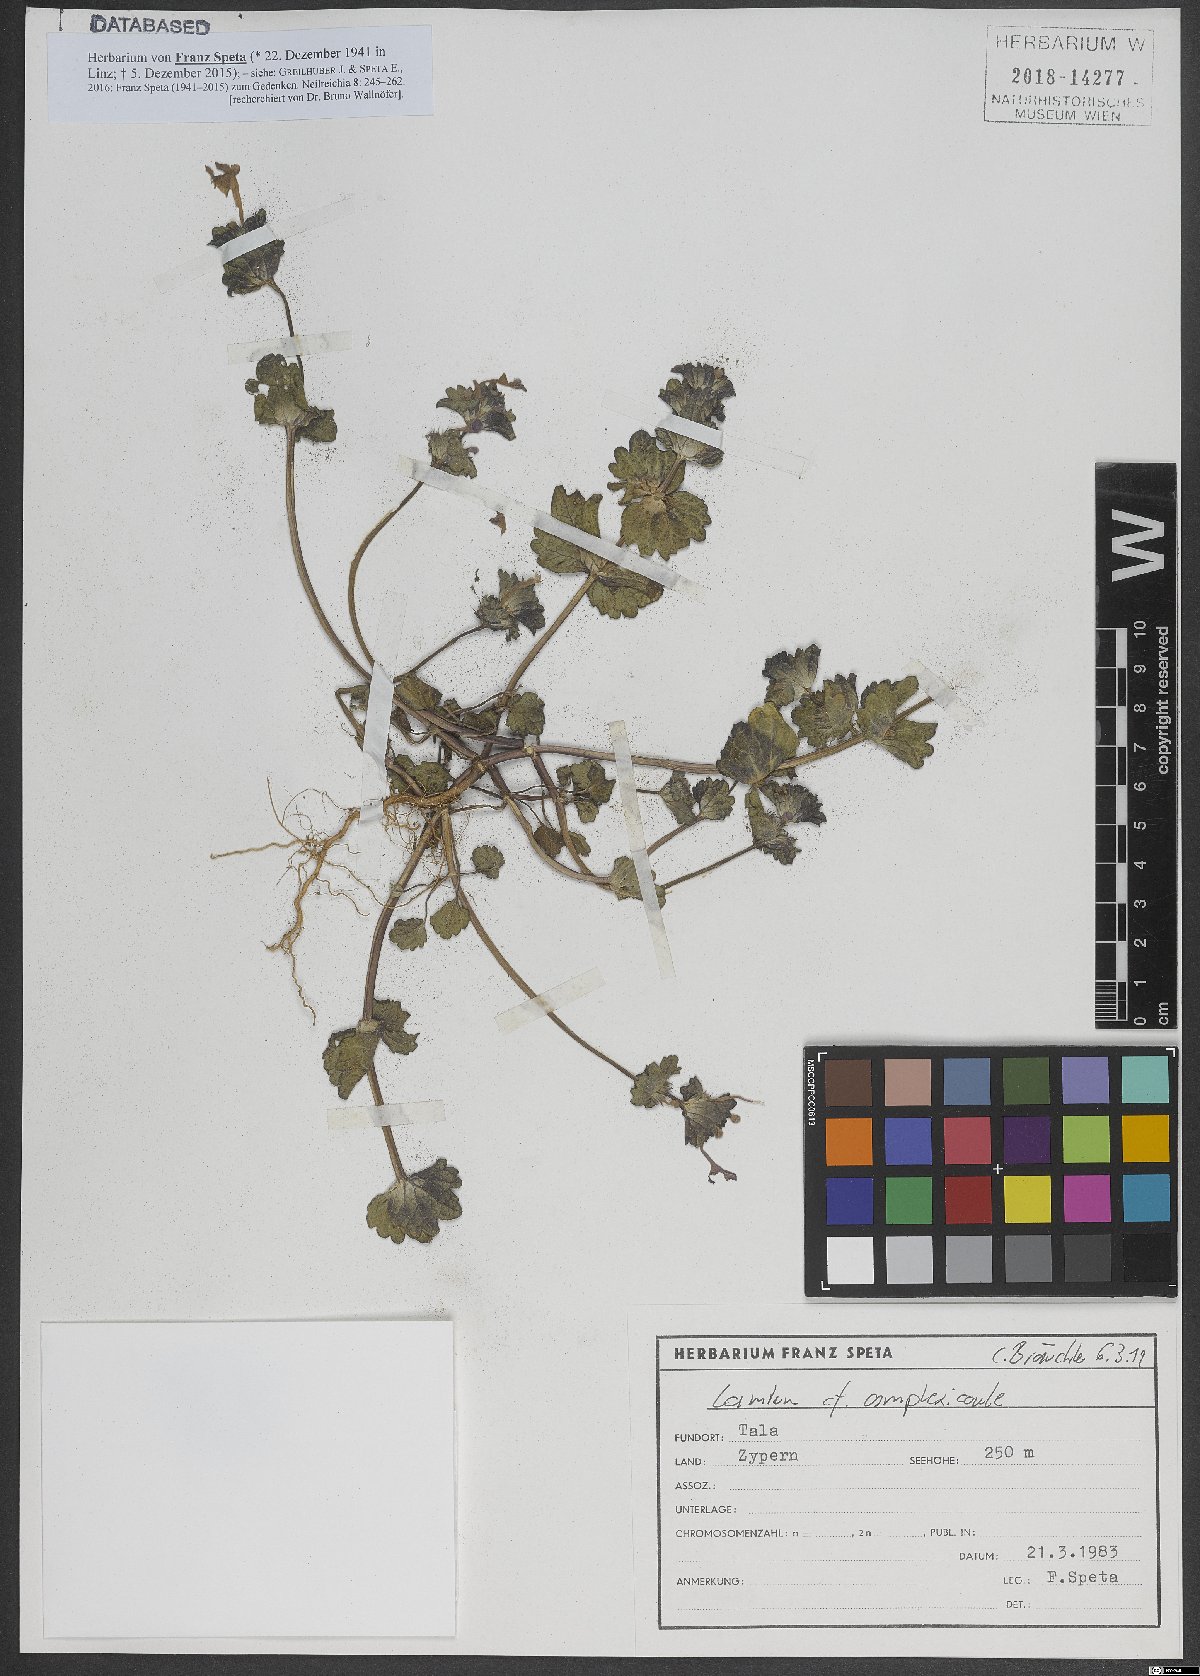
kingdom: Plantae
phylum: Tracheophyta
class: Magnoliopsida
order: Lamiales
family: Lamiaceae
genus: Lamium
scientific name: Lamium amplexicaule
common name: Henbit dead-nettle
